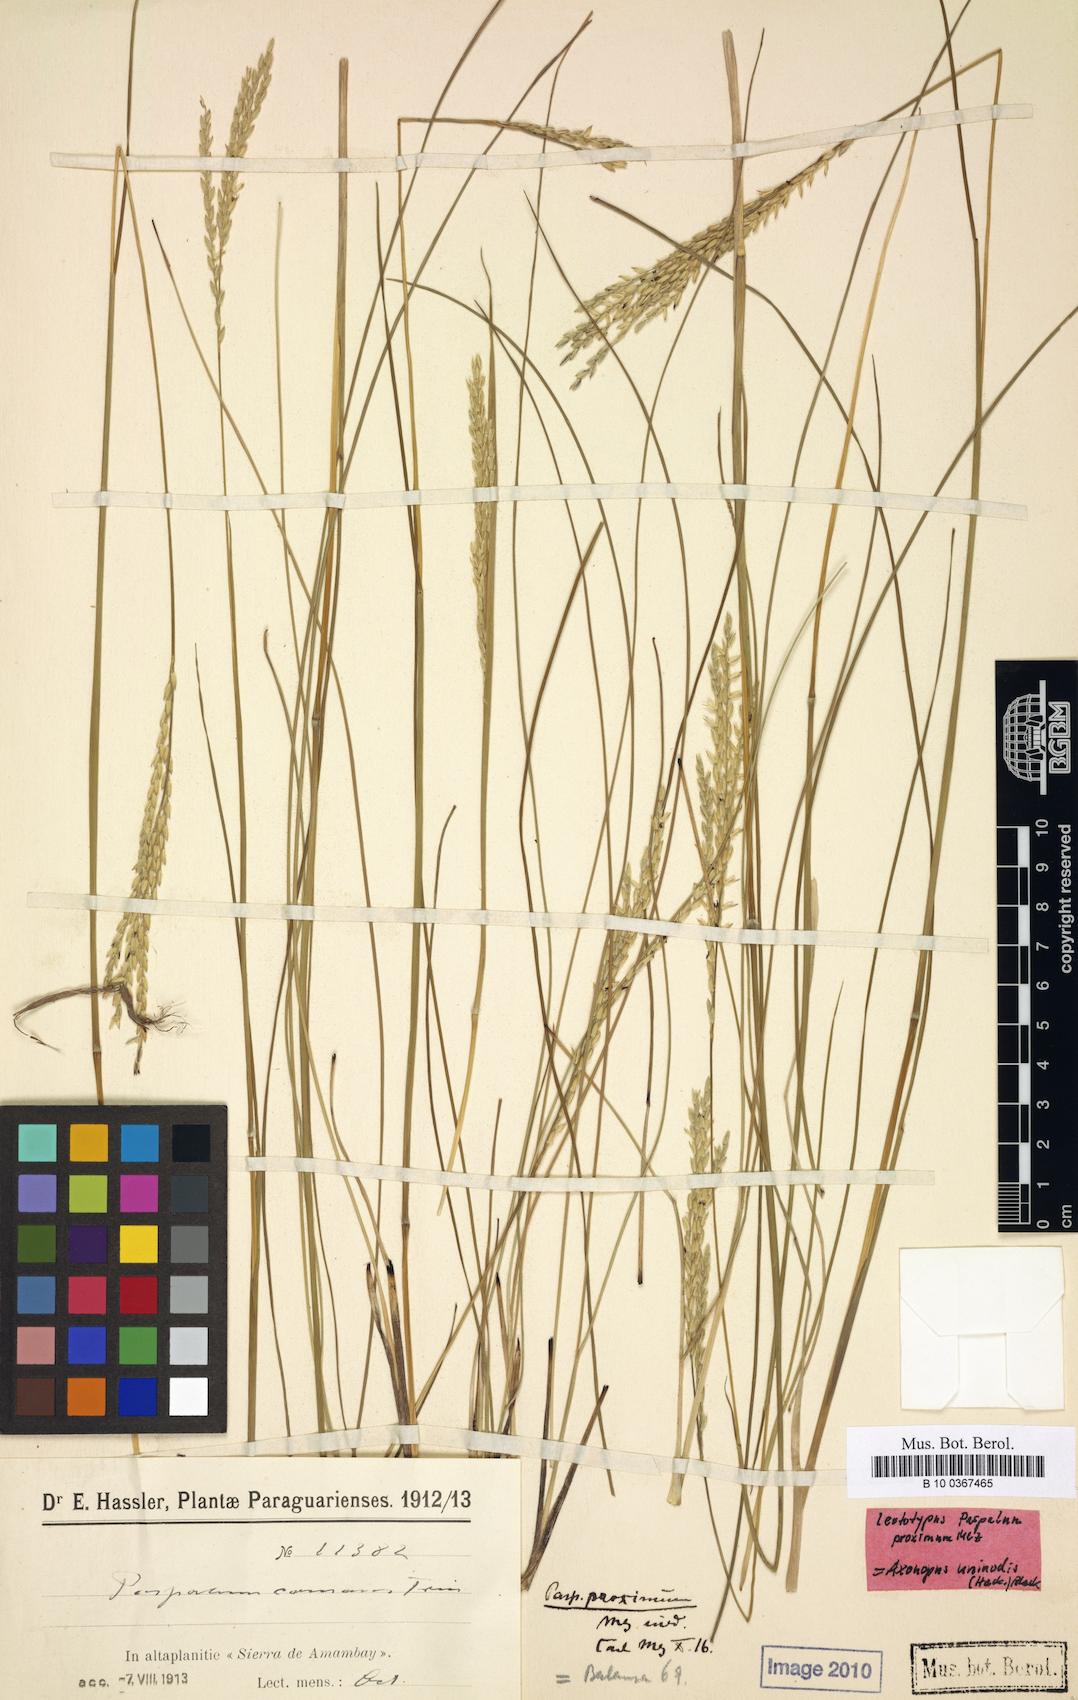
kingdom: Plantae
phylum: Tracheophyta
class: Liliopsida
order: Poales
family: Poaceae
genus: Paspalum
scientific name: Paspalum ellipticum
